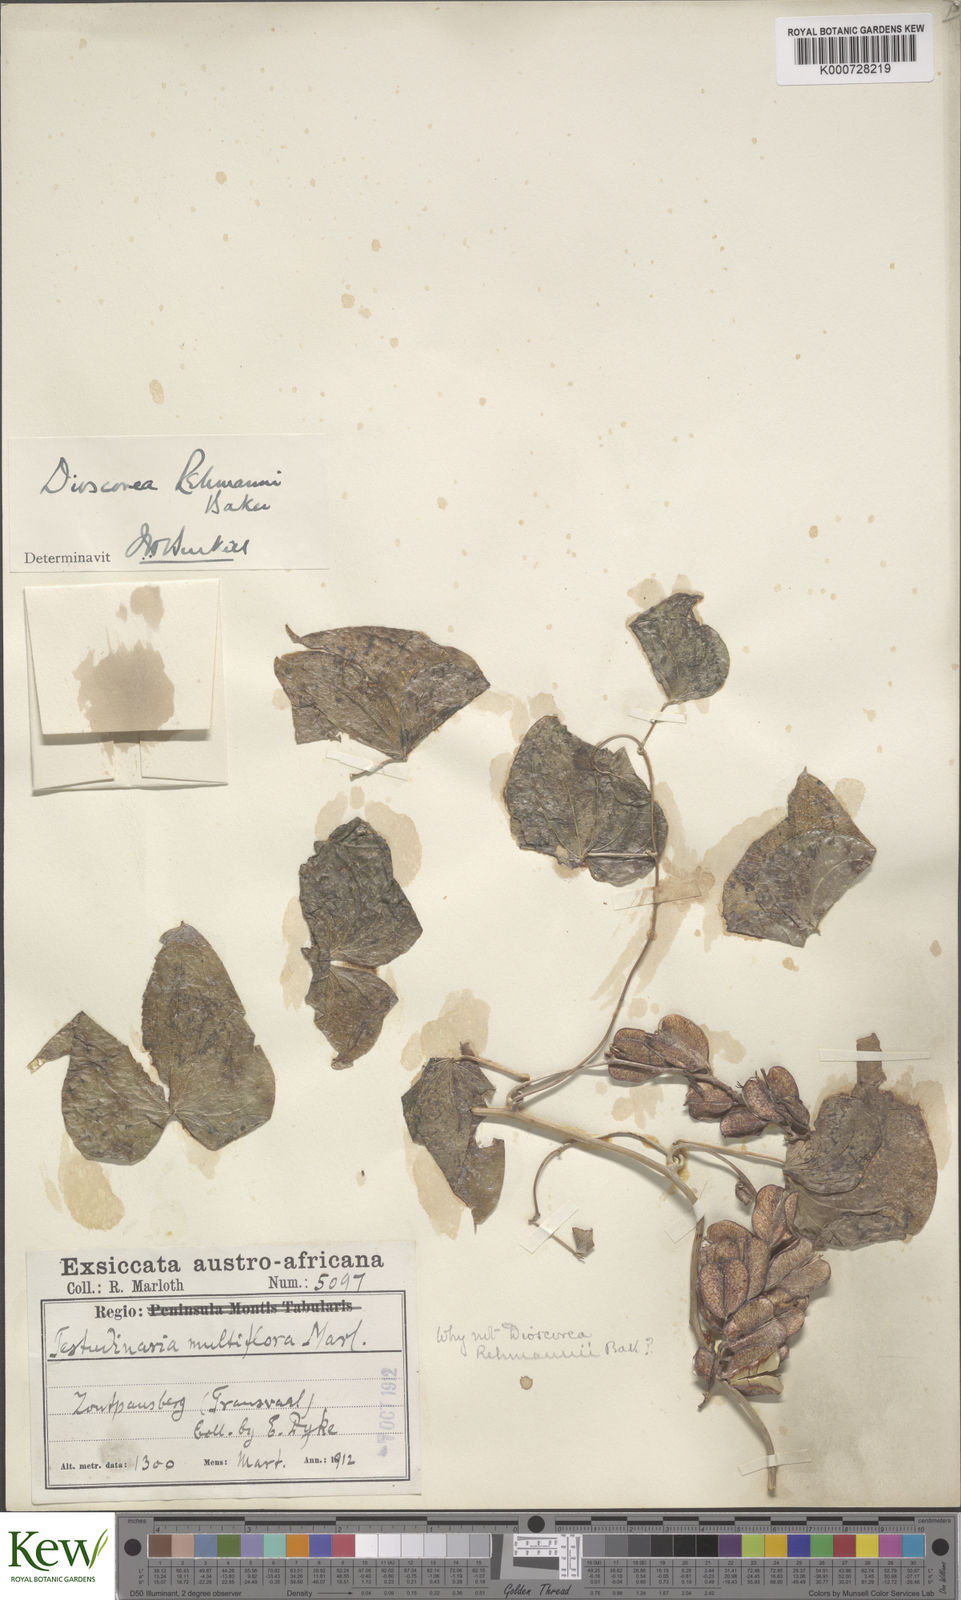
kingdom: Plantae
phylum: Tracheophyta
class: Liliopsida
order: Dioscoreales
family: Dioscoreaceae
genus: Dioscorea
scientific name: Dioscorea multiflora
